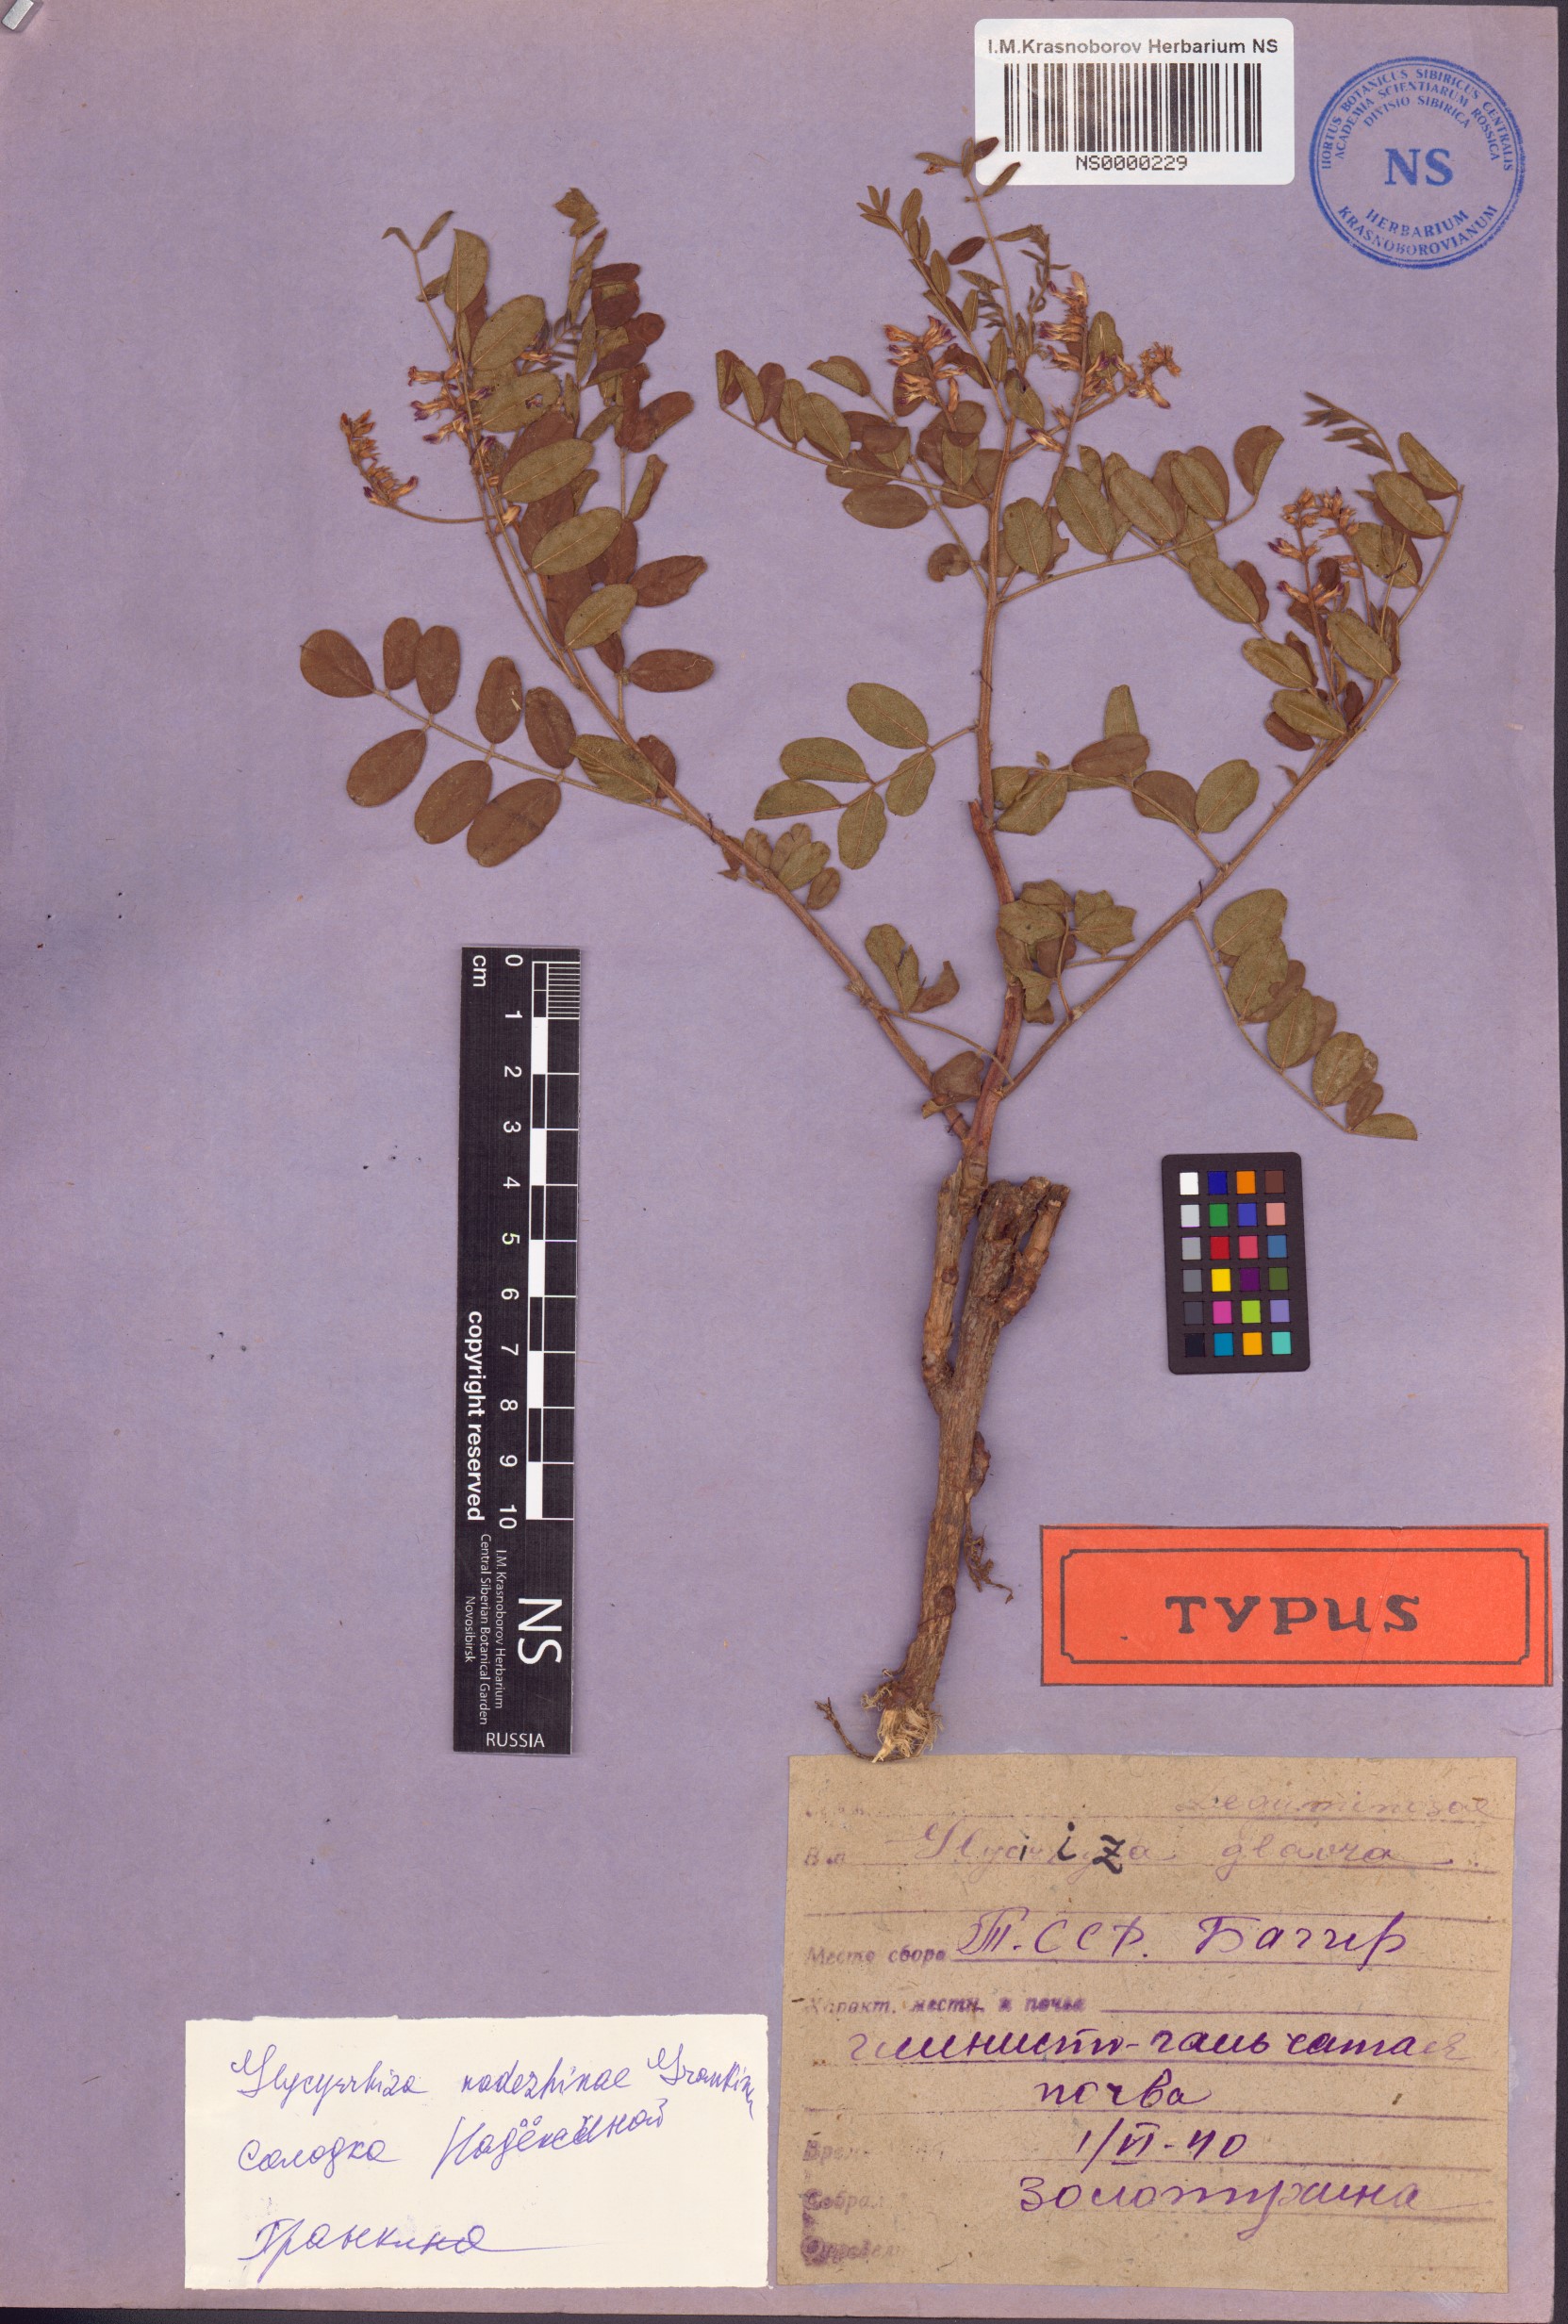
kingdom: Plantae
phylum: Tracheophyta
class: Magnoliopsida
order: Fabales
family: Fabaceae
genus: Glycyrrhiza
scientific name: Glycyrrhiza glabra
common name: Liquorice
